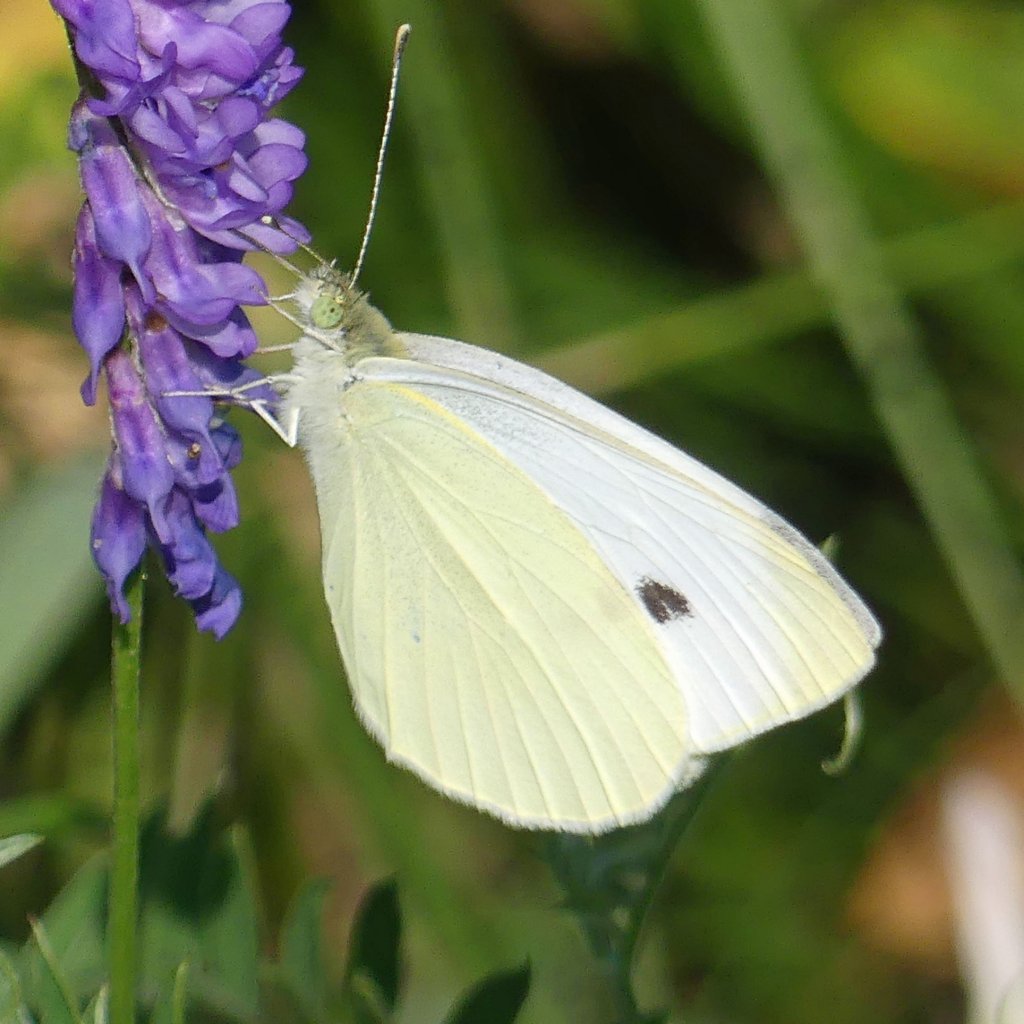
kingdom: Animalia
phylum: Arthropoda
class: Insecta
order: Lepidoptera
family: Pieridae
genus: Pieris
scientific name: Pieris rapae
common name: Cabbage White
